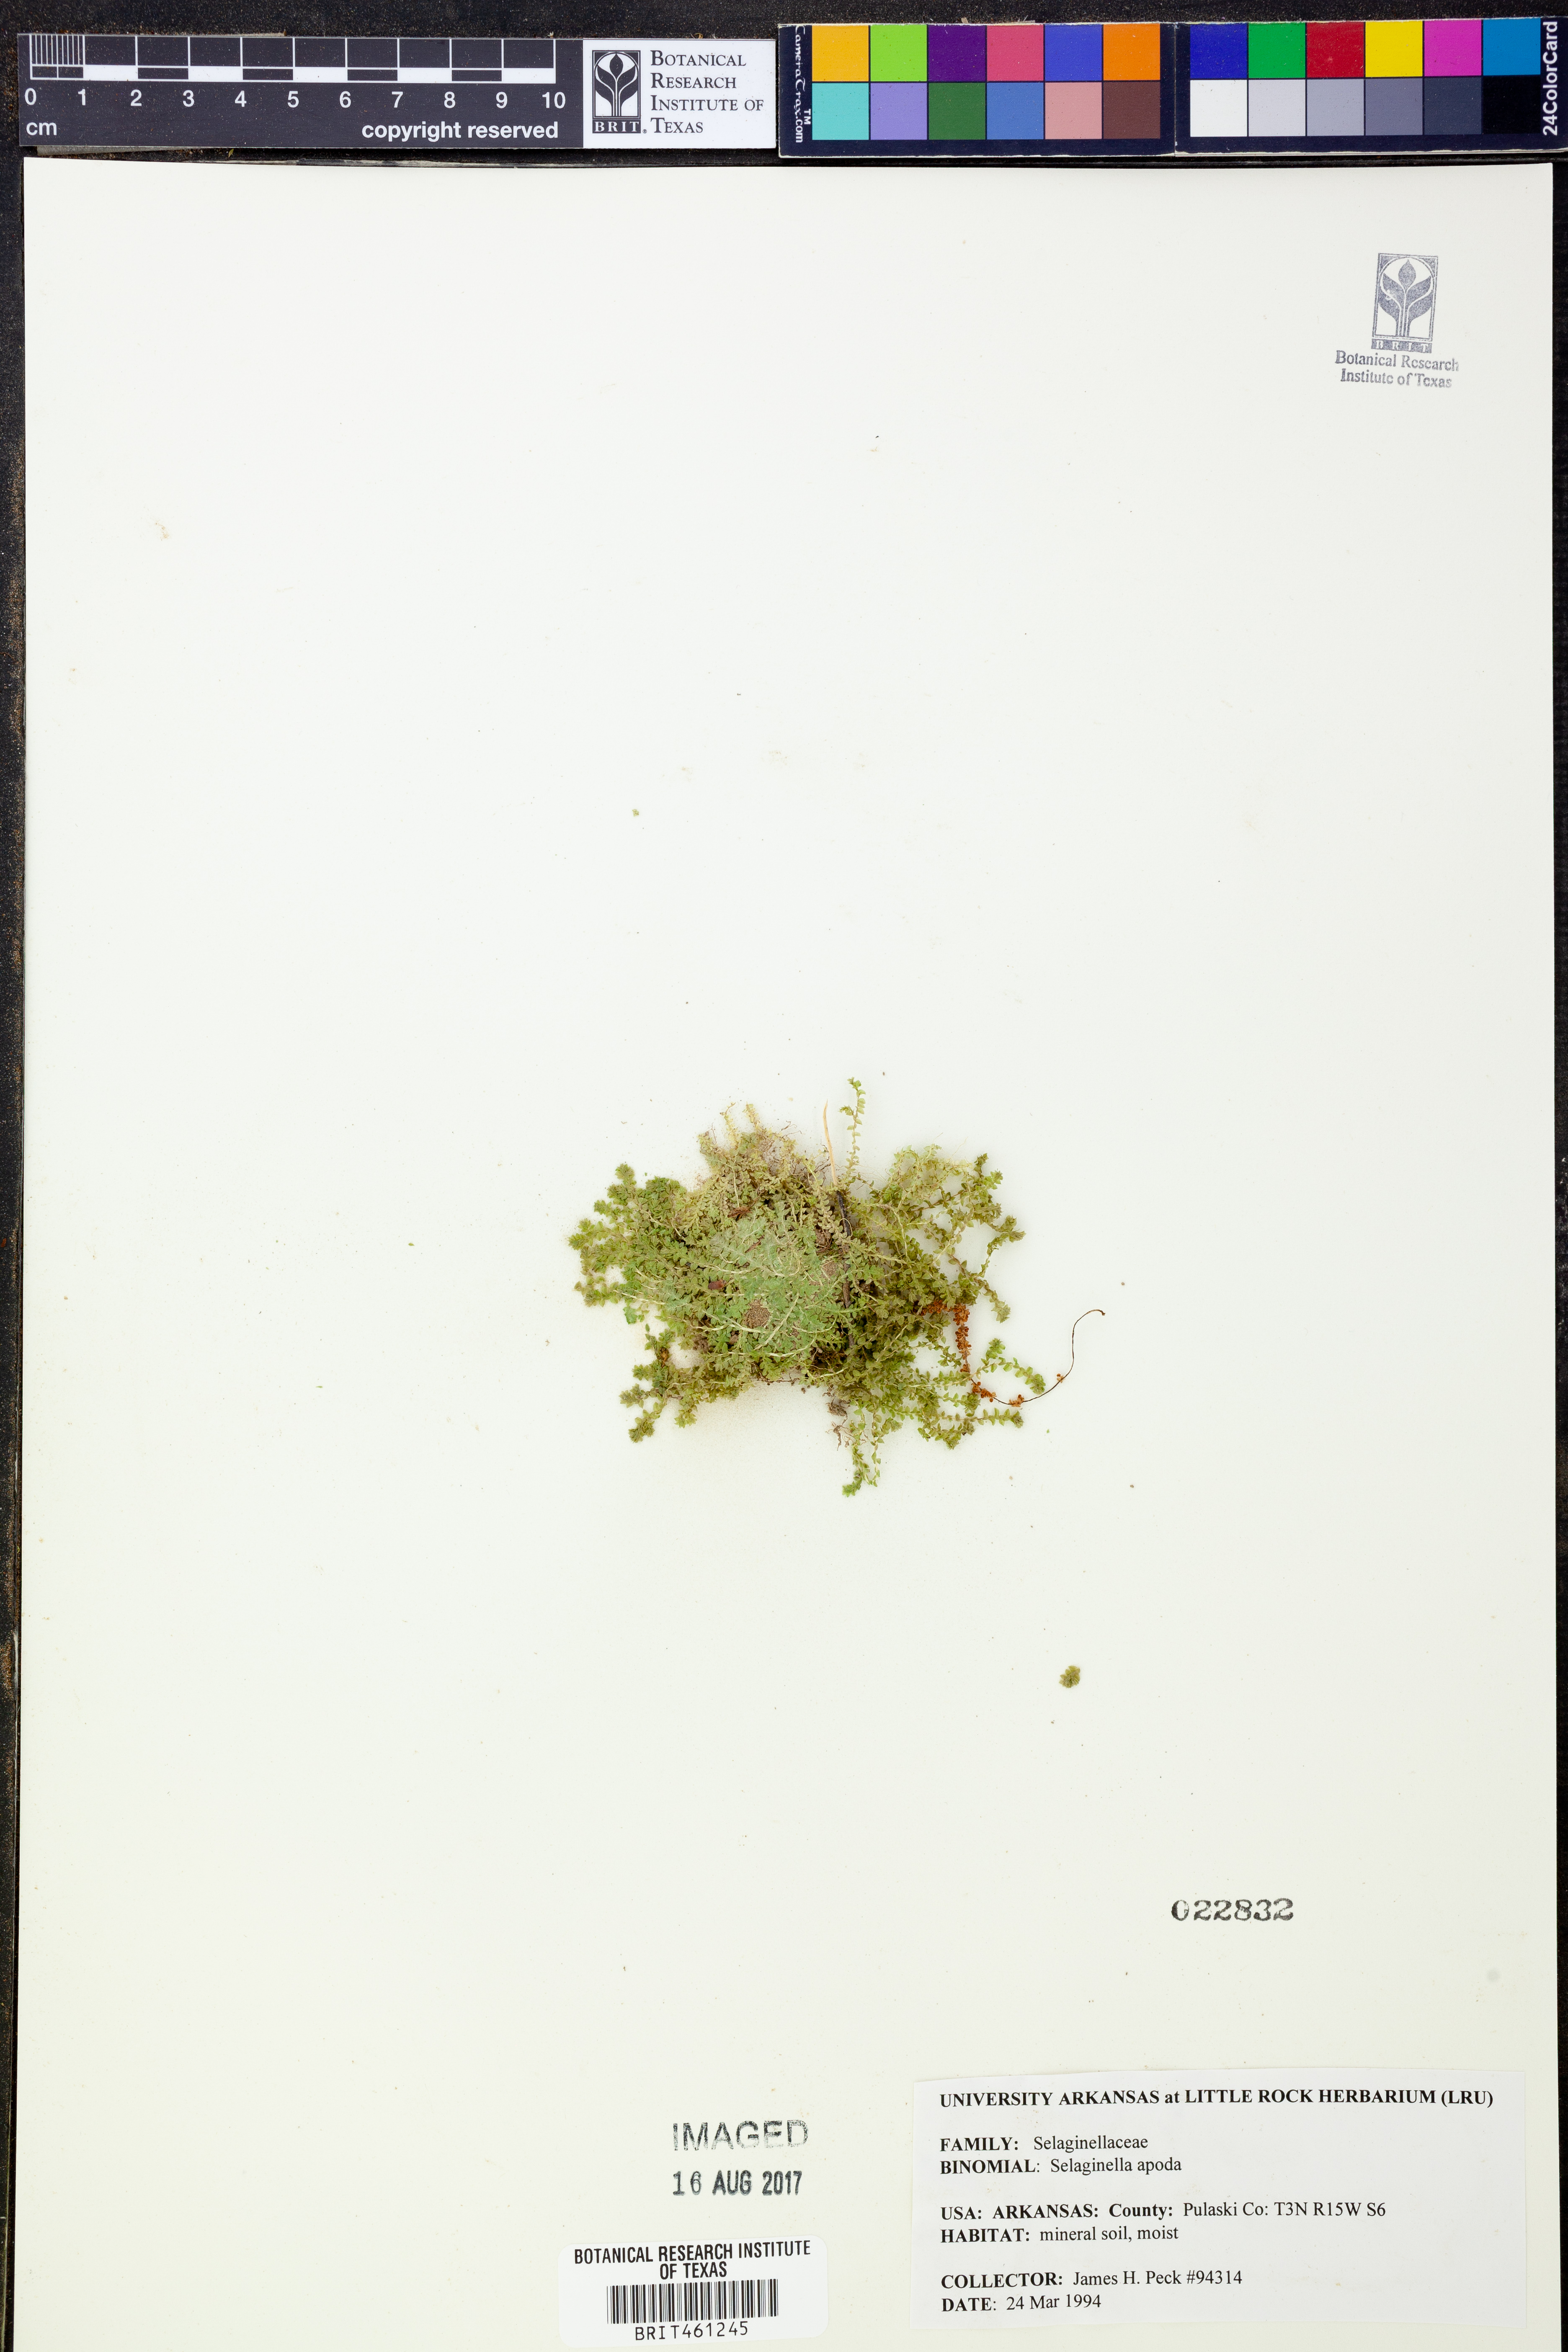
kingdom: Plantae
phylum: Tracheophyta
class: Lycopodiopsida
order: Selaginellales
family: Selaginellaceae
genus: Selaginella
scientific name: Selaginella apoda
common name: Creeping spikemoss
